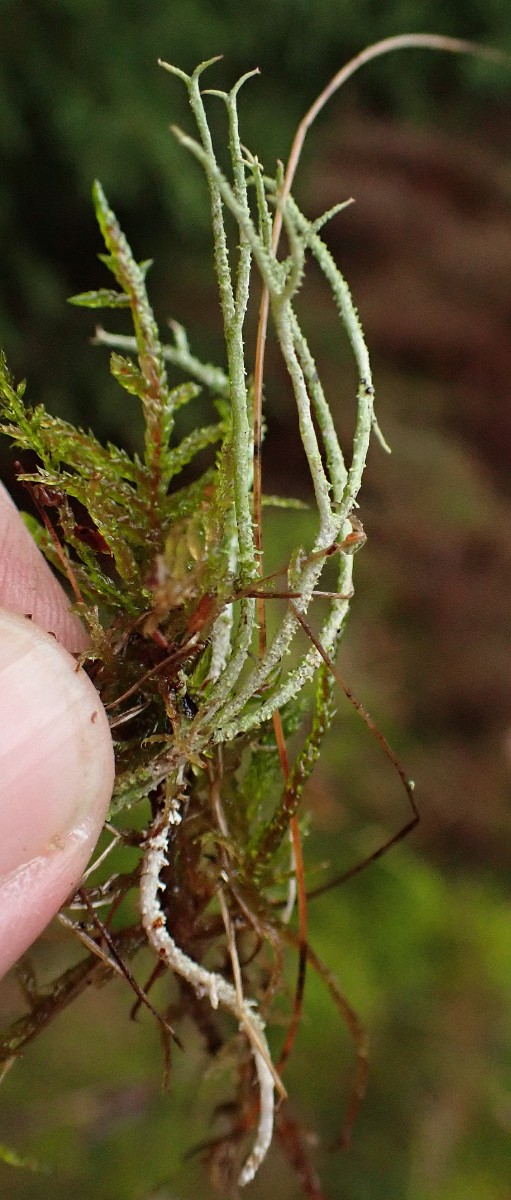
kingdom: Fungi
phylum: Ascomycota
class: Lecanoromycetes
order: Lecanorales
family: Cladoniaceae
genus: Cladonia
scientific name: Cladonia scabriuscula
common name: ru bægerlav
